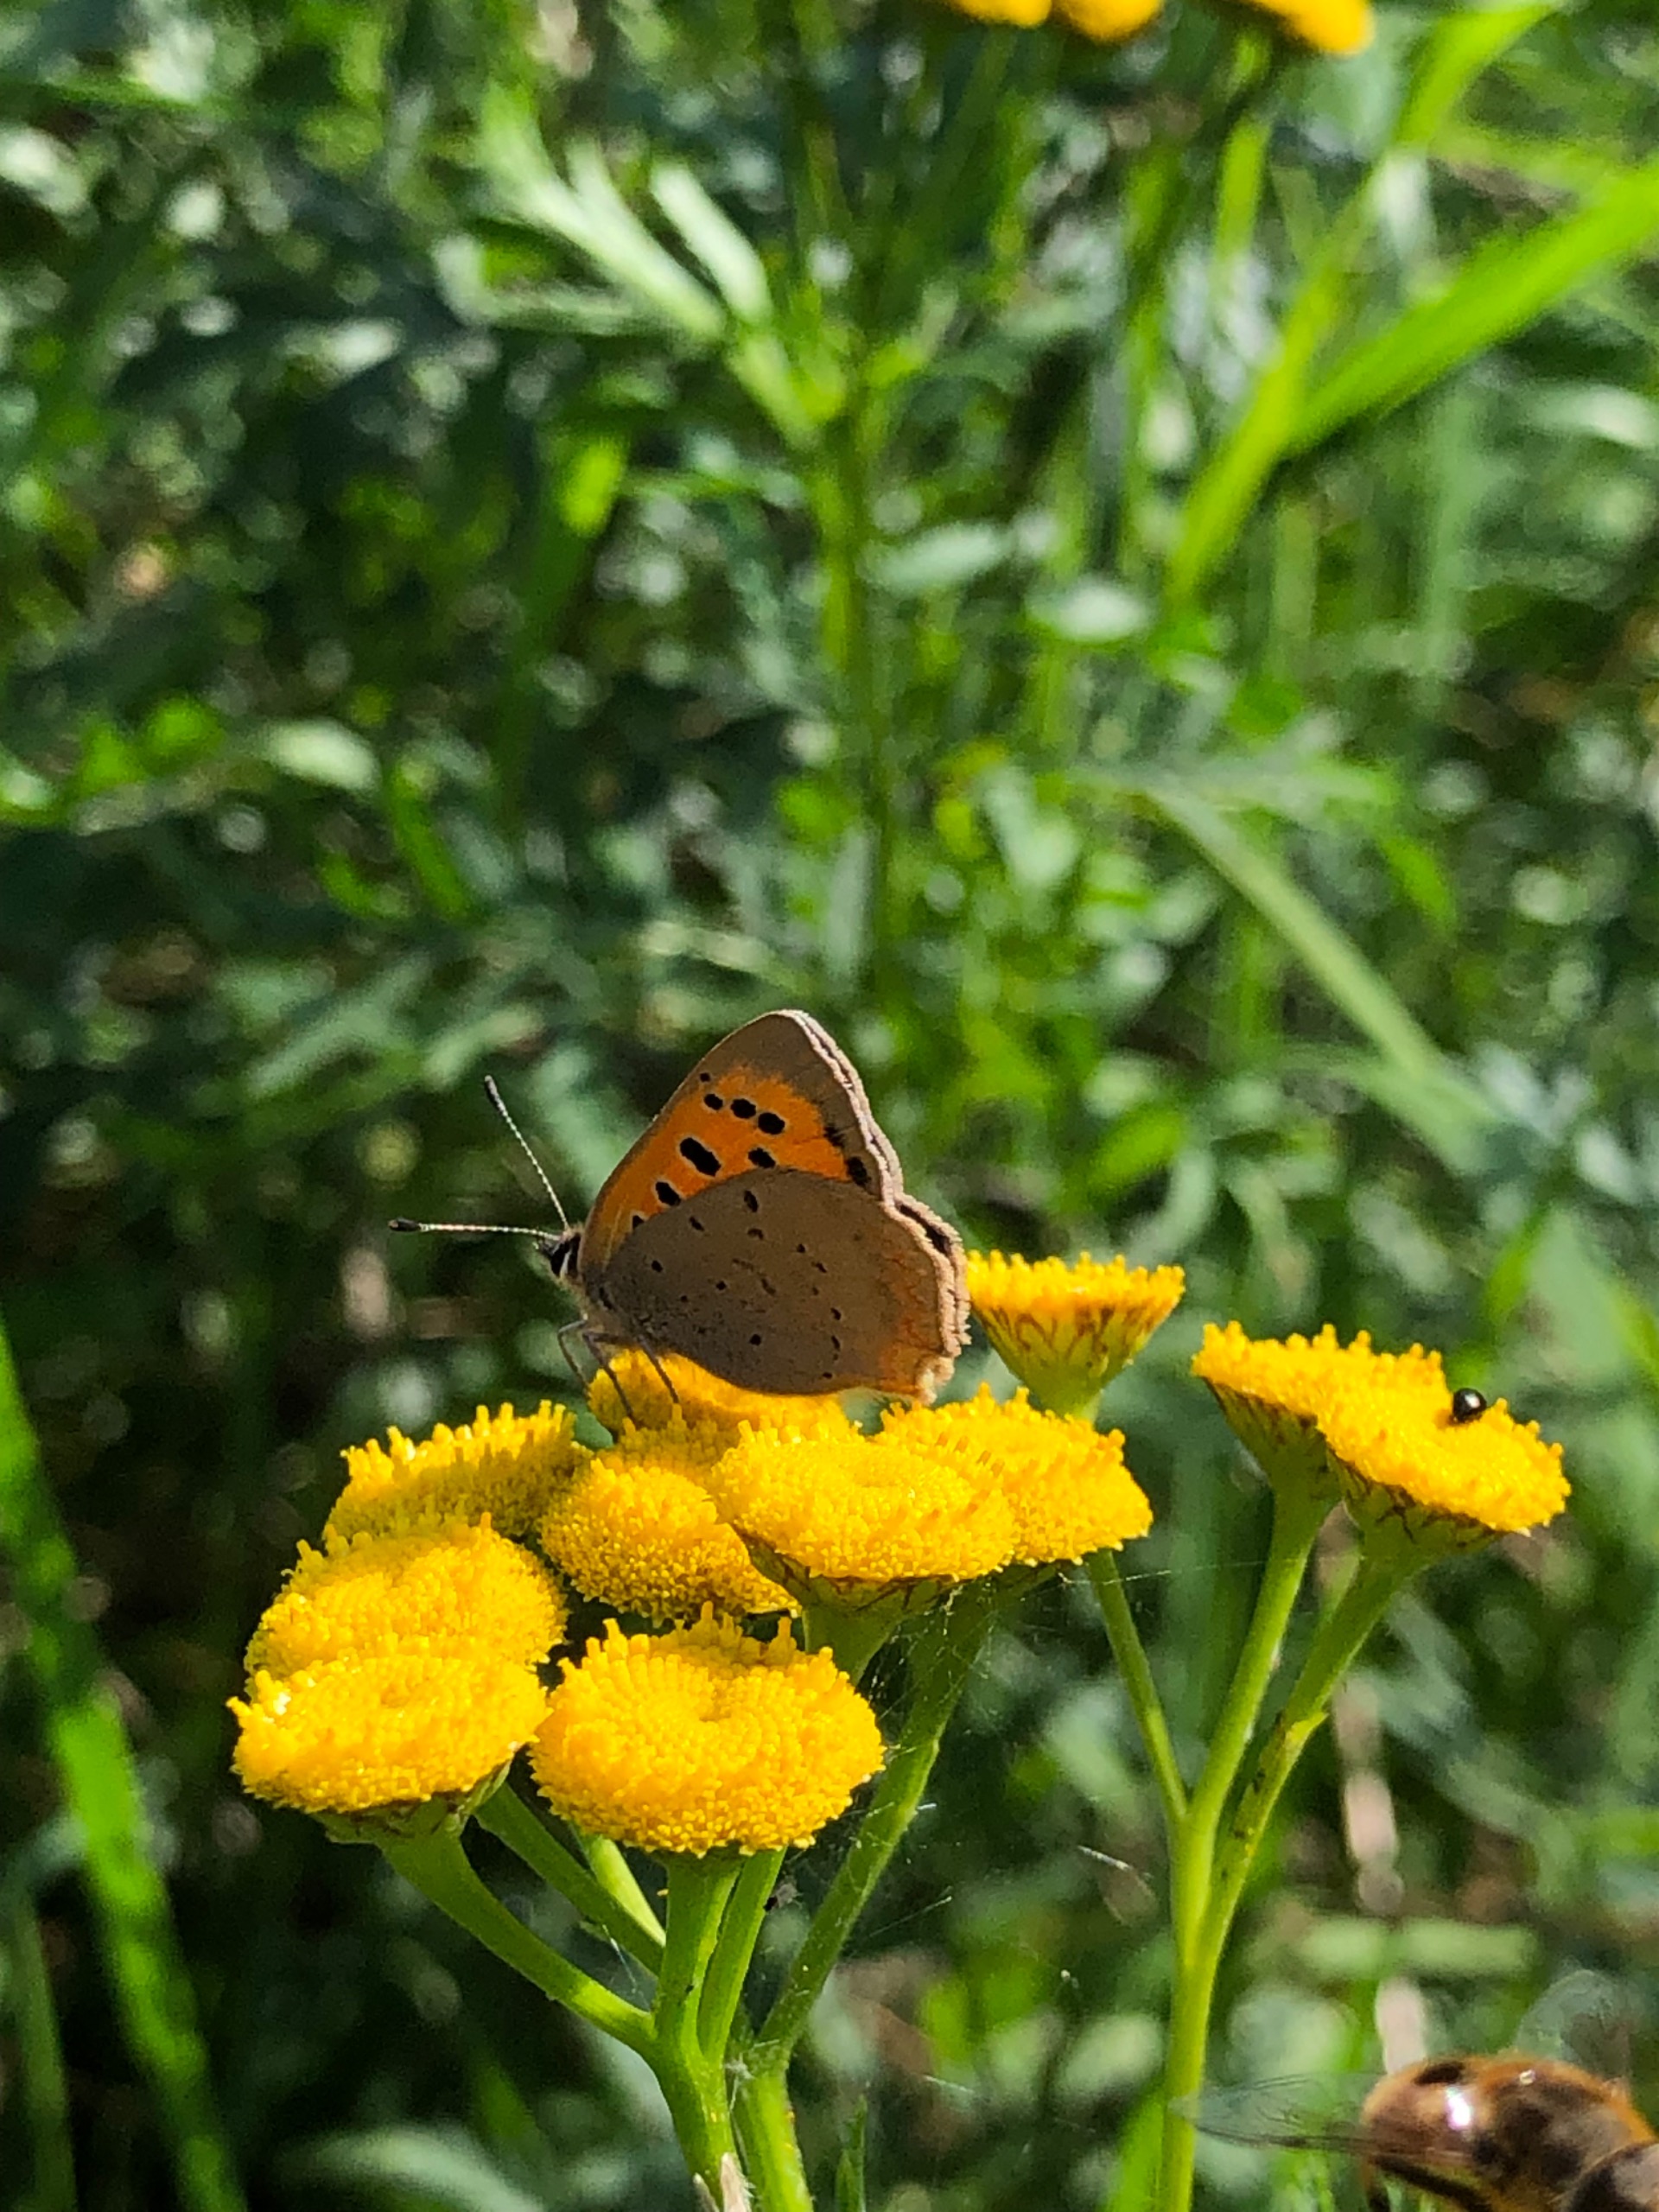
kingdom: Animalia
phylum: Arthropoda
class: Insecta
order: Lepidoptera
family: Lycaenidae
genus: Lycaena
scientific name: Lycaena phlaeas
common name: Lille ildfugl
